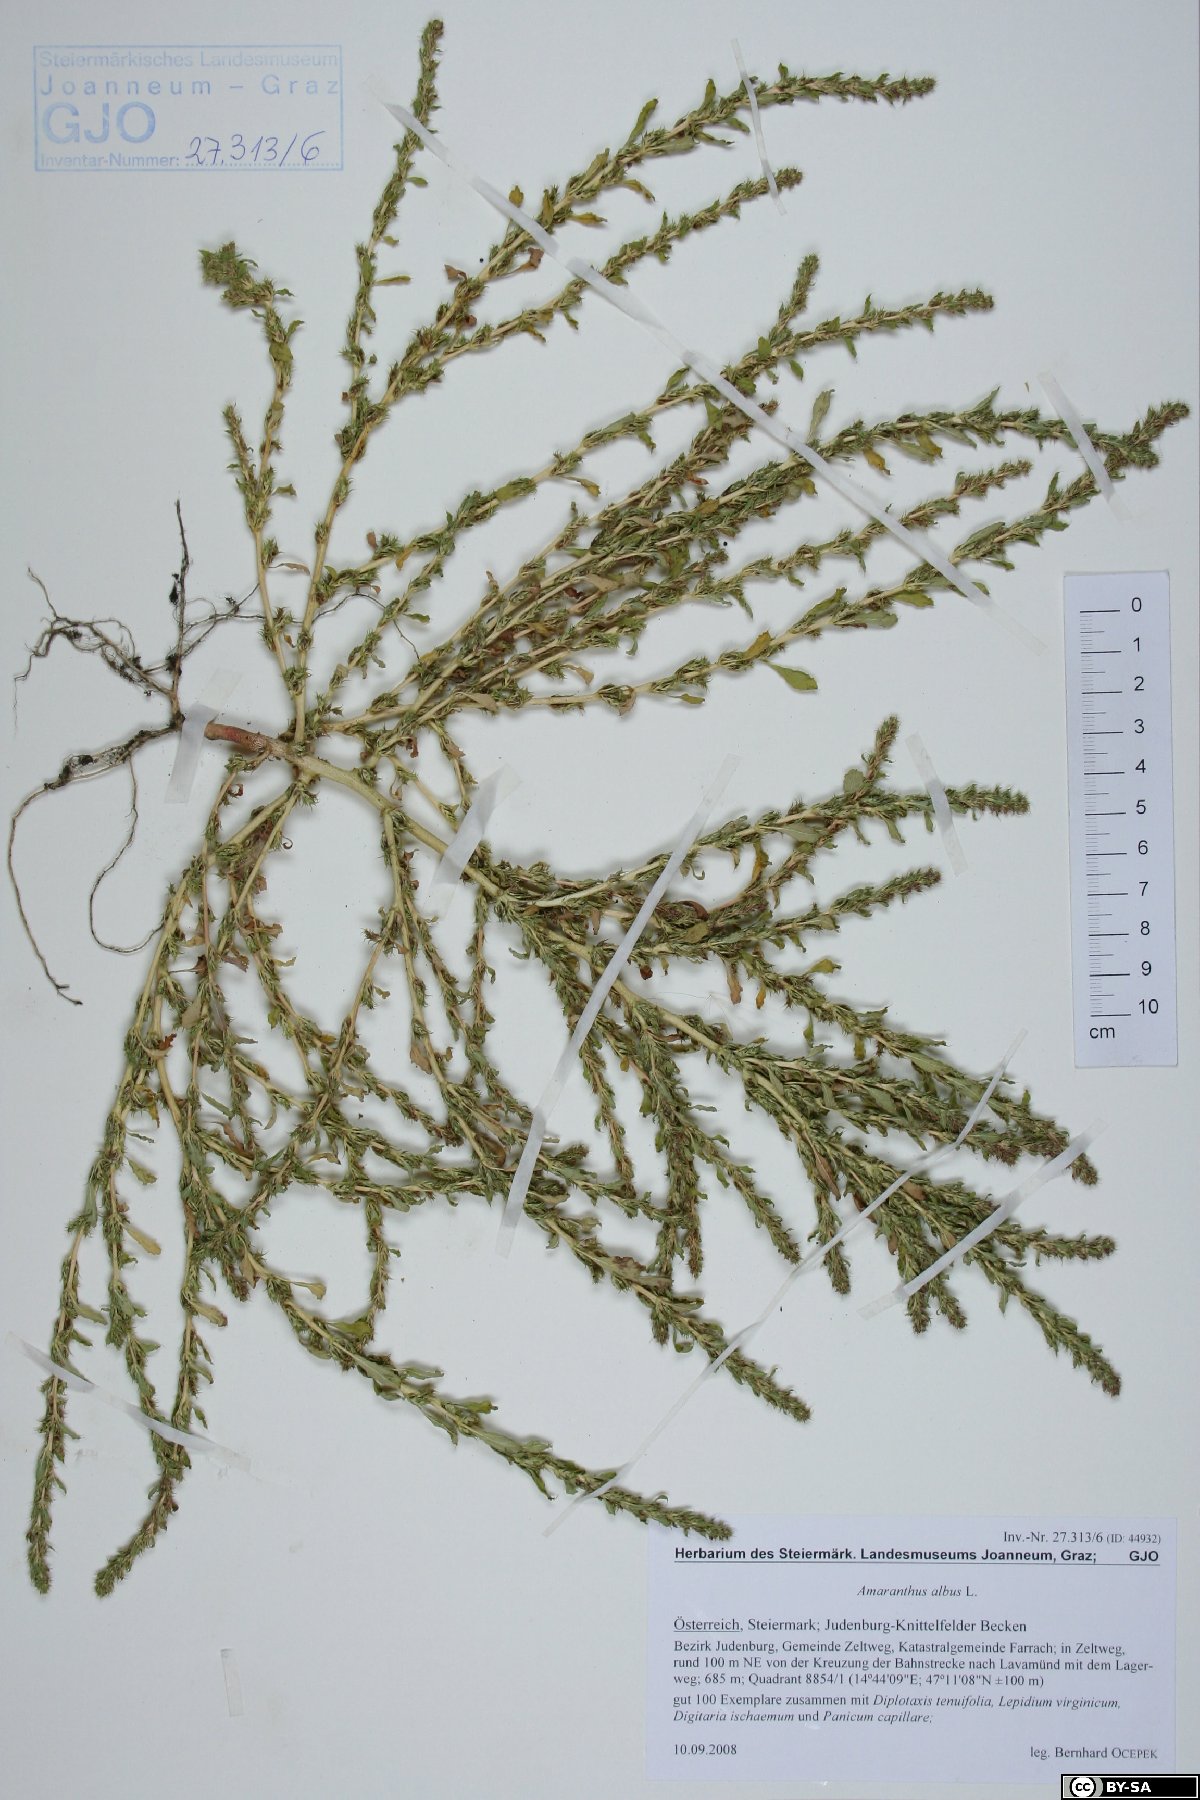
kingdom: Plantae
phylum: Tracheophyta
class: Magnoliopsida
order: Caryophyllales
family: Amaranthaceae
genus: Amaranthus
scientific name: Amaranthus albus
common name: White pigweed
